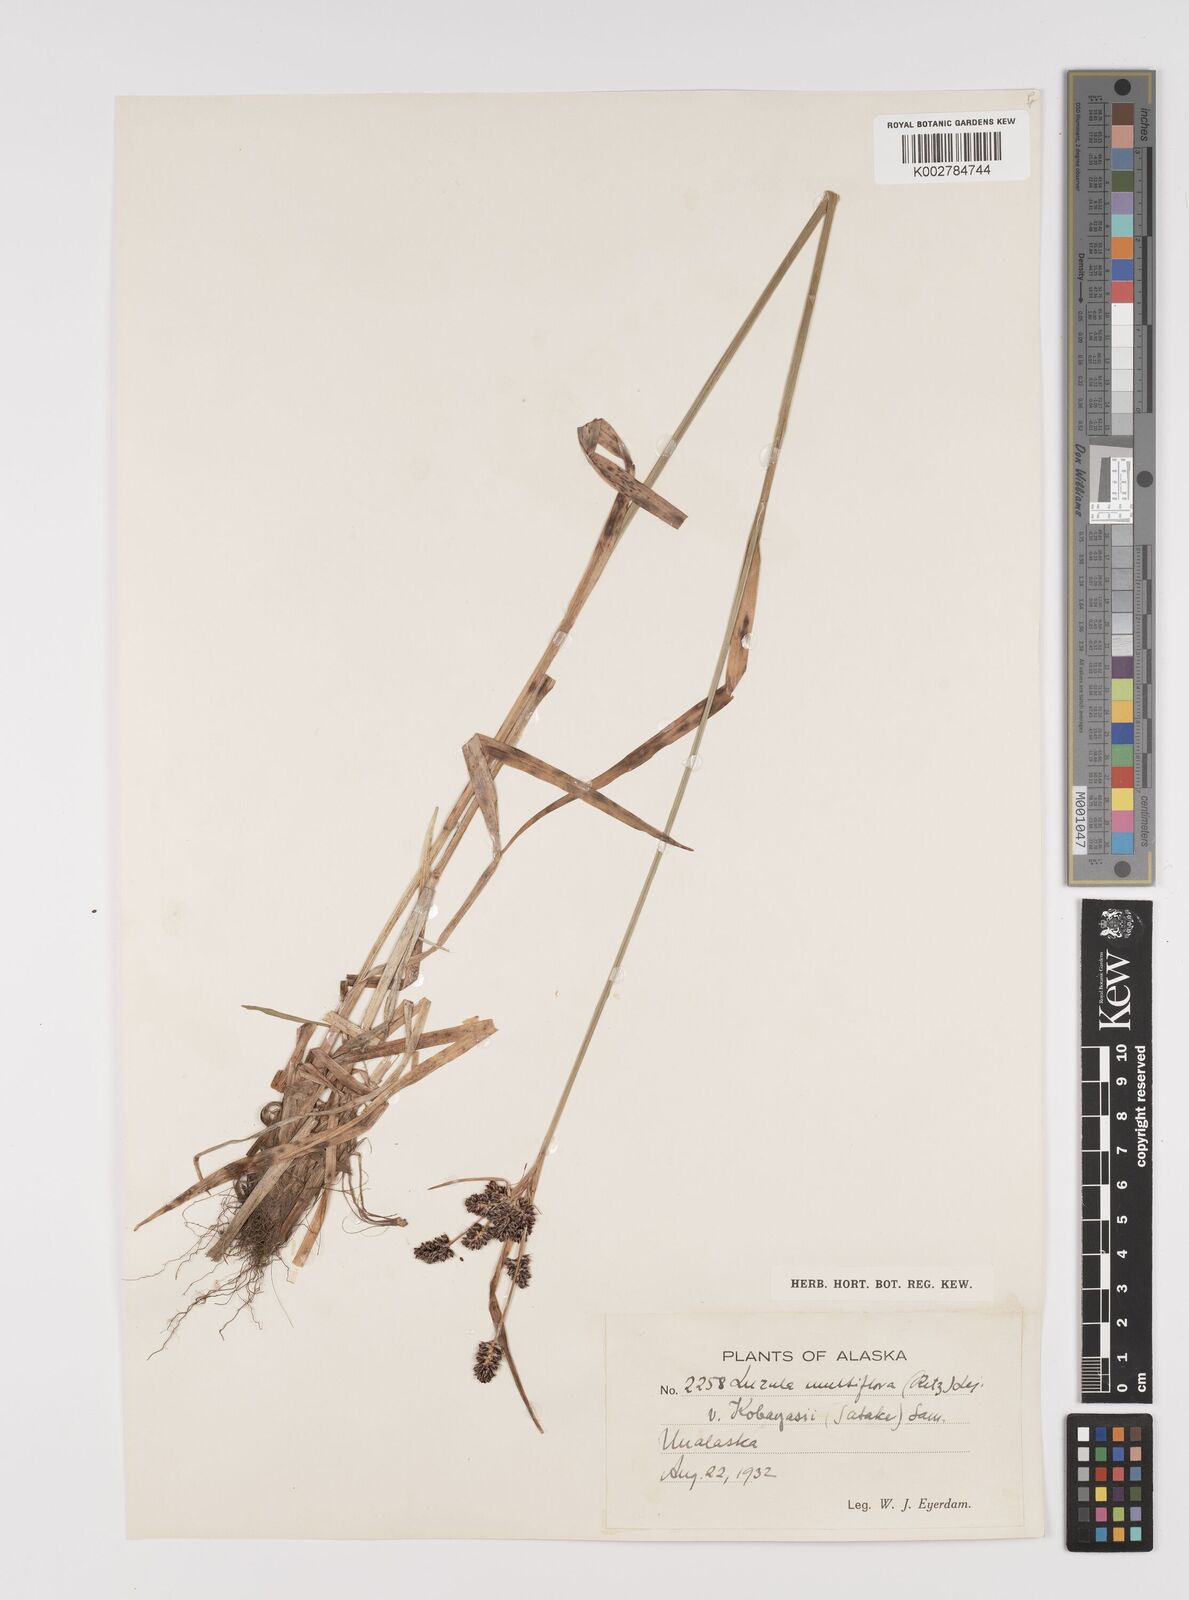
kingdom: Plantae
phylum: Tracheophyta
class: Liliopsida
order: Poales
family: Juncaceae
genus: Luzula
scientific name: Luzula campestris
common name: Field wood-rush
